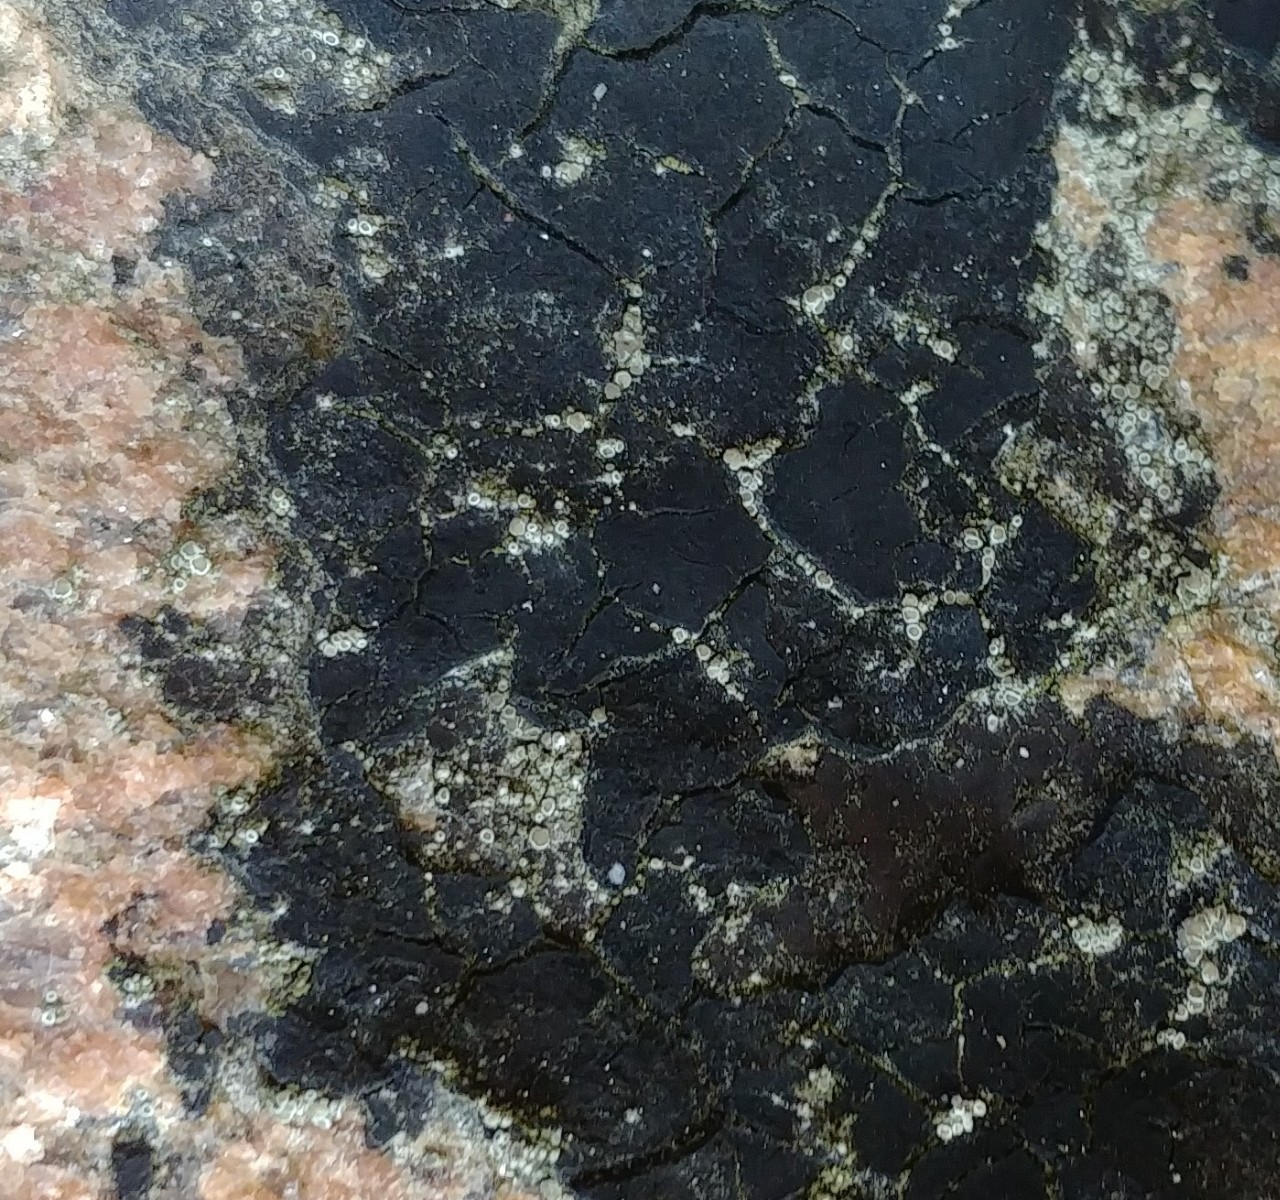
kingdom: Fungi
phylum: Ascomycota
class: Lecanoromycetes
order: Lecanorales
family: Lecanoraceae
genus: Polyozosia
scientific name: Polyozosia dispersa
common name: spredt kantskivelav
